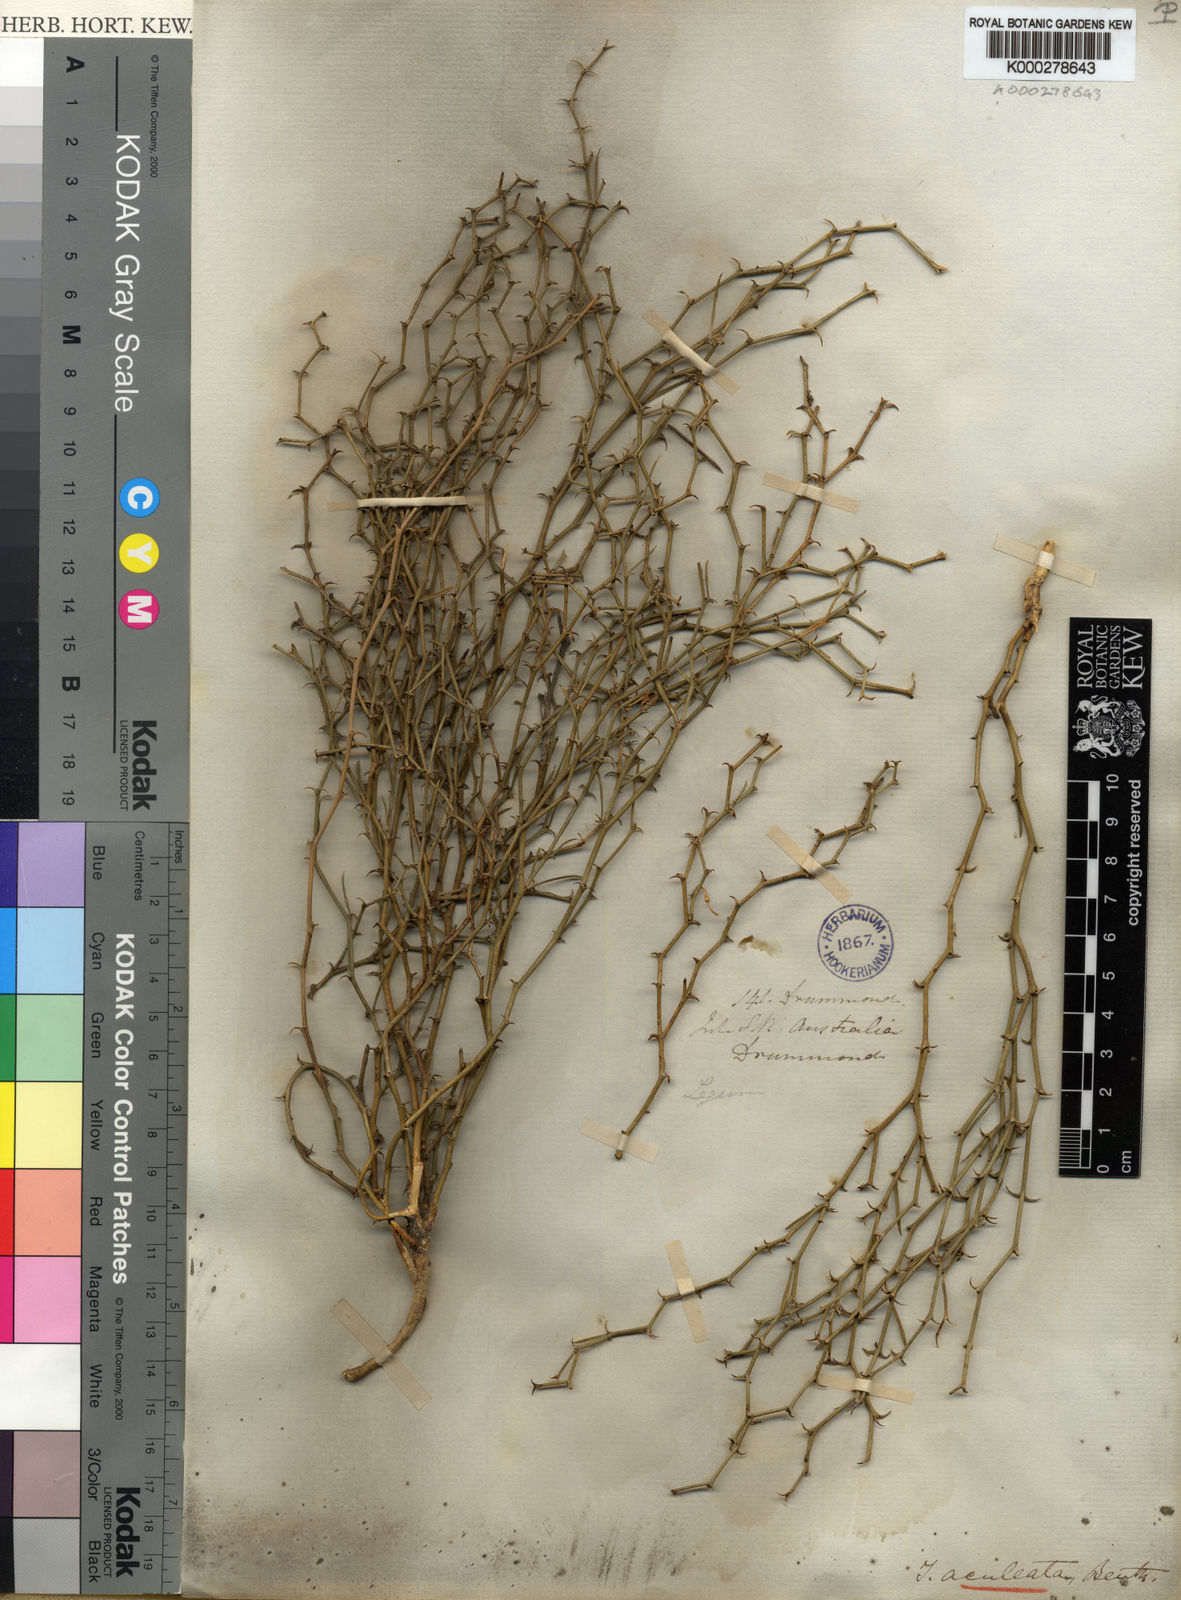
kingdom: Plantae
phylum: Tracheophyta
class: Magnoliopsida
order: Fabales
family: Fabaceae
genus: Templetonia
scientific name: Templetonia aculeata
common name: Spiny mallee pea
